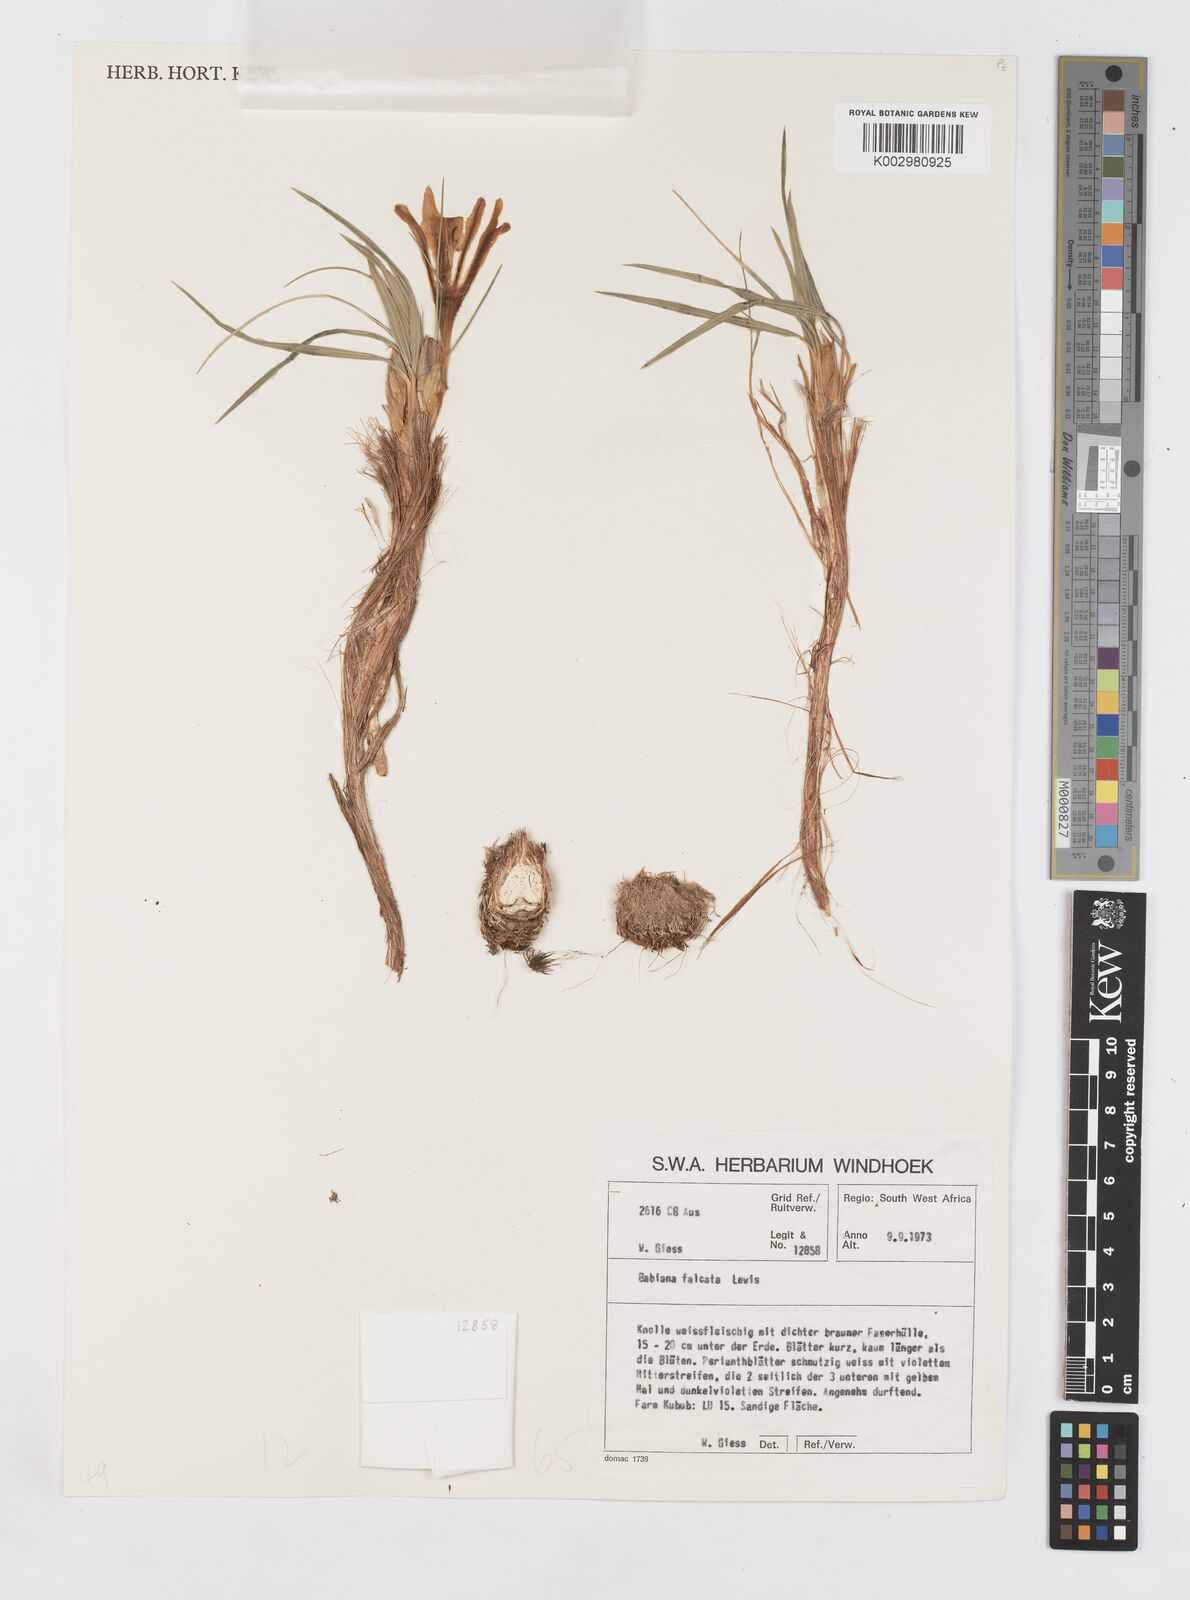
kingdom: Plantae
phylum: Tracheophyta
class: Liliopsida
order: Asparagales
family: Iridaceae
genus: Babiana
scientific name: Babiana hypogaea
